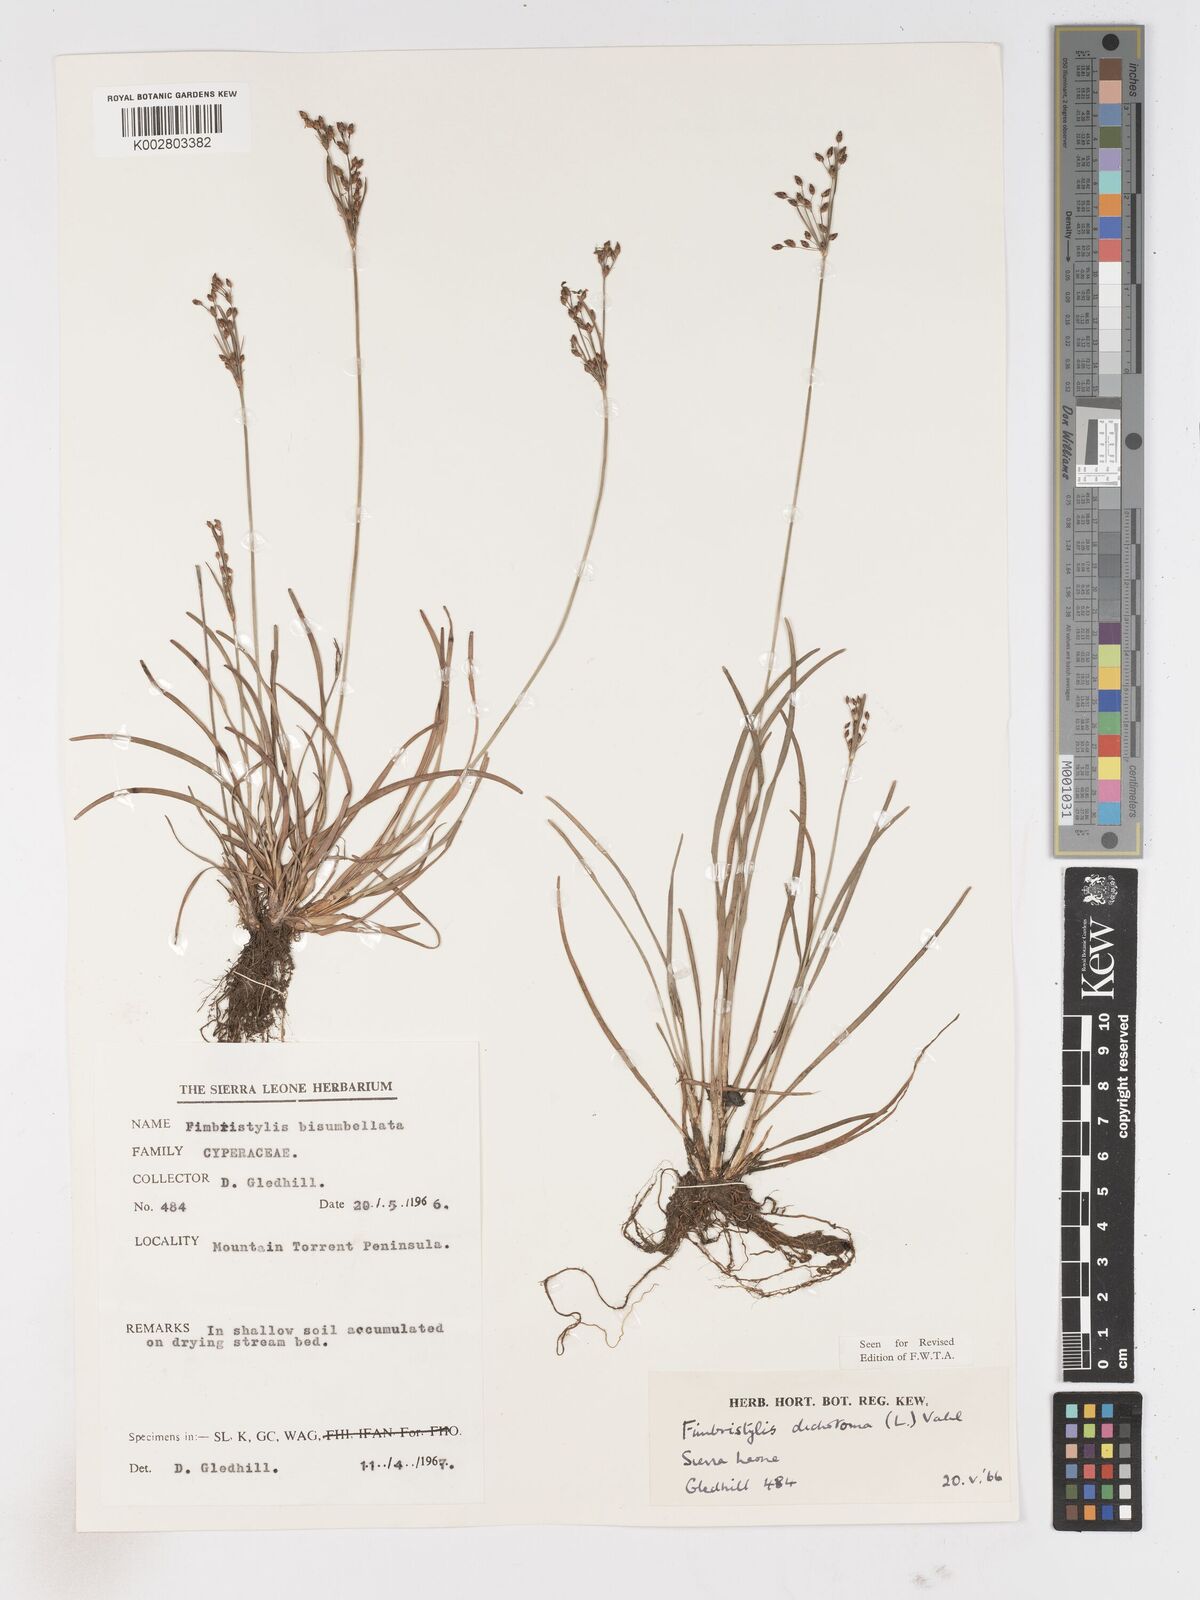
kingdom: Plantae
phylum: Tracheophyta
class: Liliopsida
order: Poales
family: Cyperaceae
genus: Fimbristylis
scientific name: Fimbristylis dichotoma
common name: Forked fimbry
